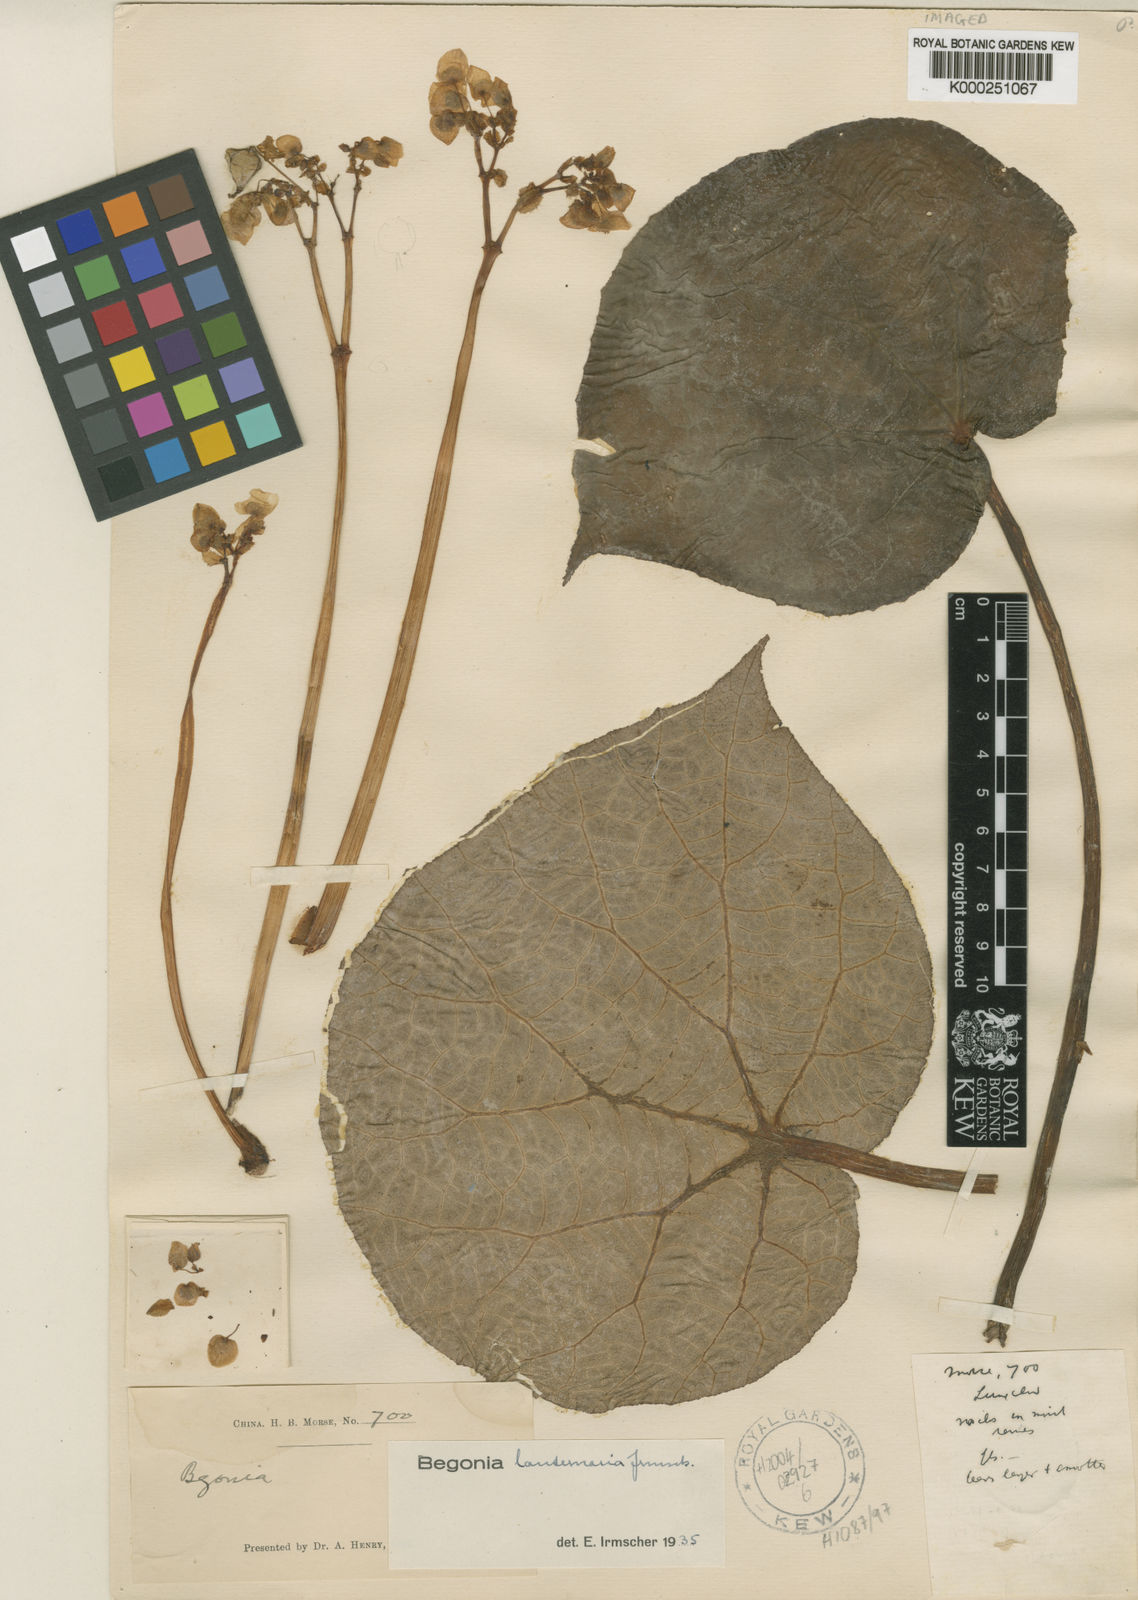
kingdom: Plantae
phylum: Tracheophyta
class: Magnoliopsida
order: Cucurbitales
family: Begoniaceae
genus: Begonia
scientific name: Begonia lanternaria
